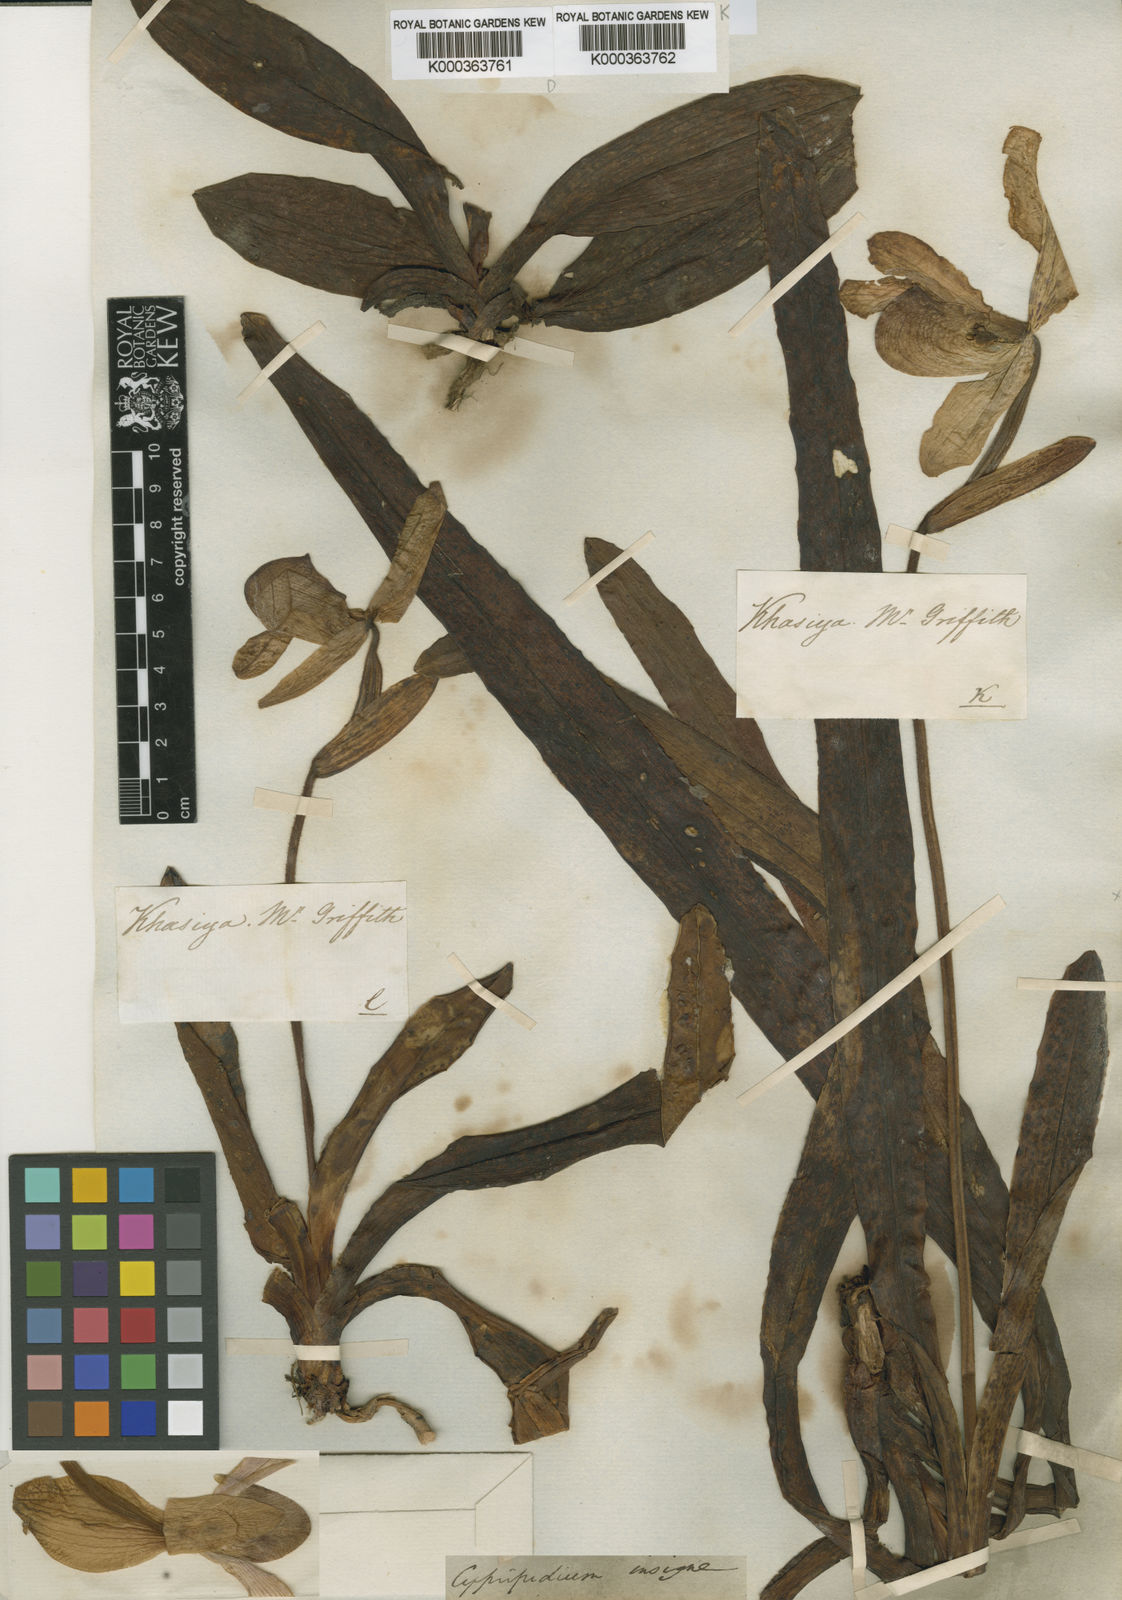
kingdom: Plantae
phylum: Tracheophyta
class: Liliopsida
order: Asparagales
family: Orchidaceae
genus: Paphiopedilum
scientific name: Paphiopedilum insigne
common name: Splendid paphiopedilum
